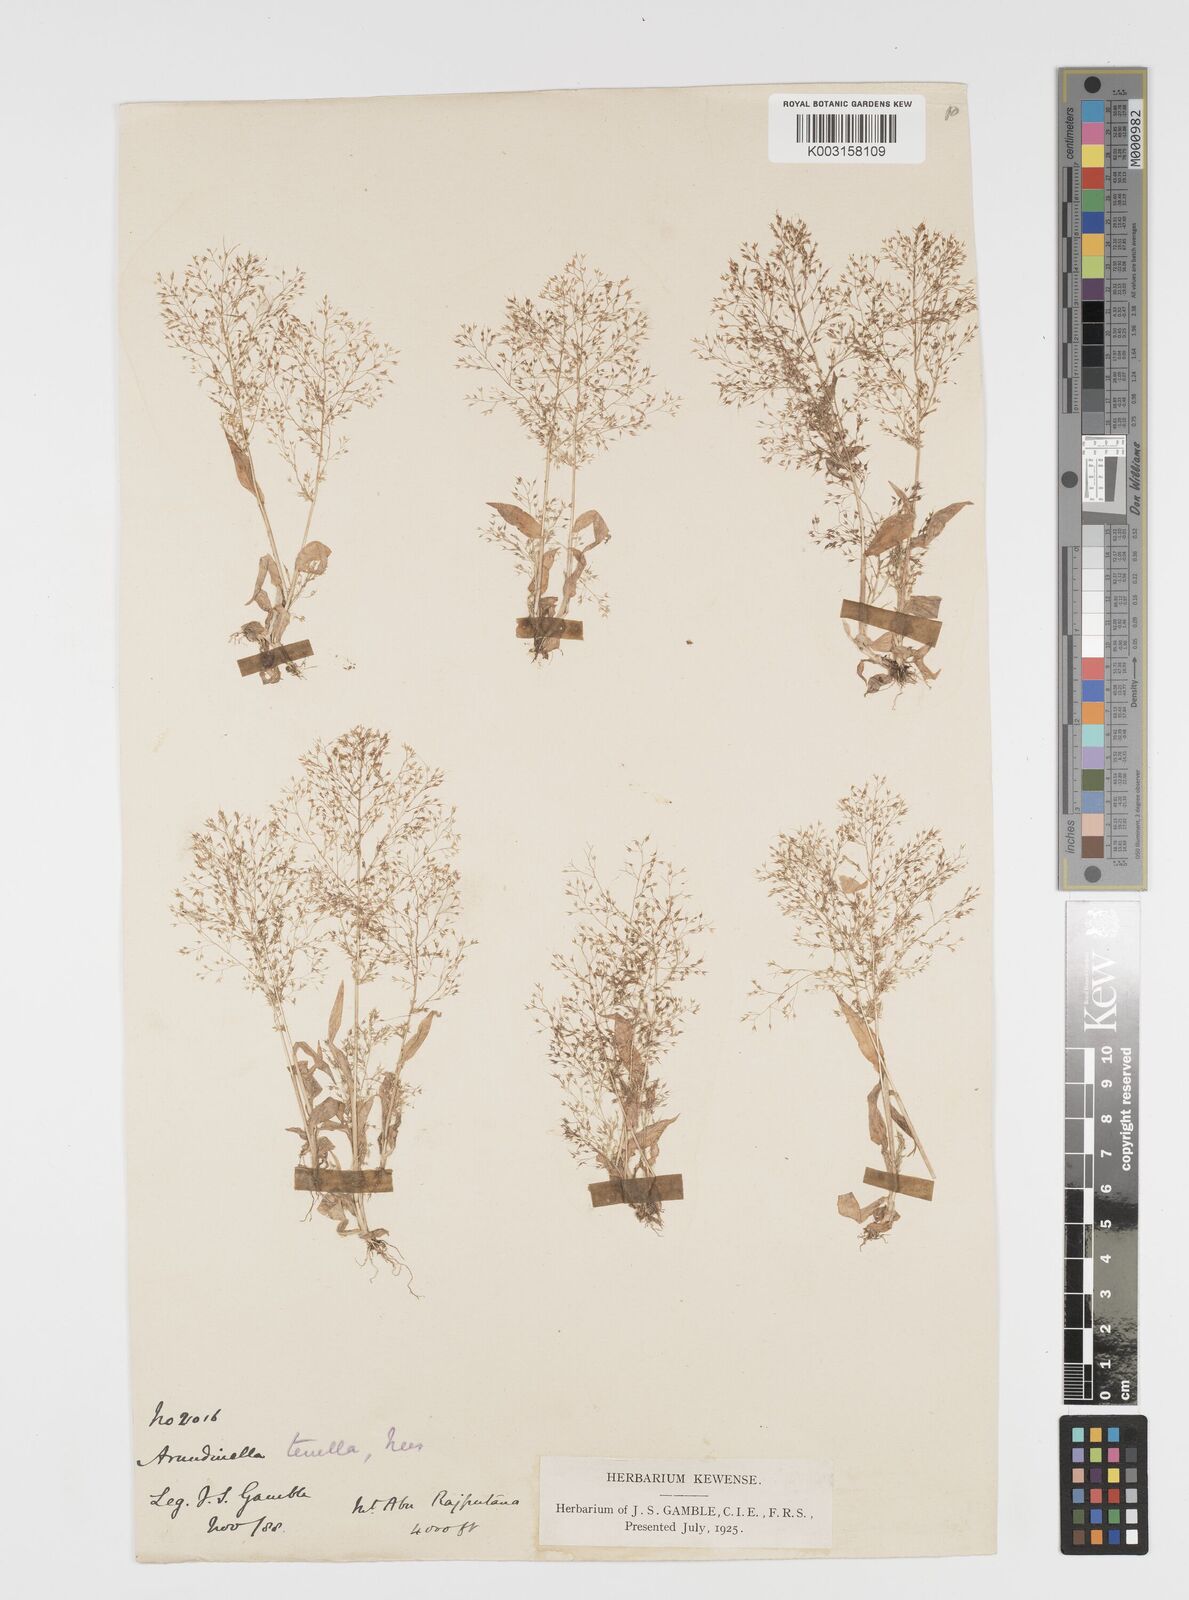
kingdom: Plantae
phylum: Tracheophyta
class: Liliopsida
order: Poales
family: Poaceae
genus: Arundinella
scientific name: Arundinella pumila
